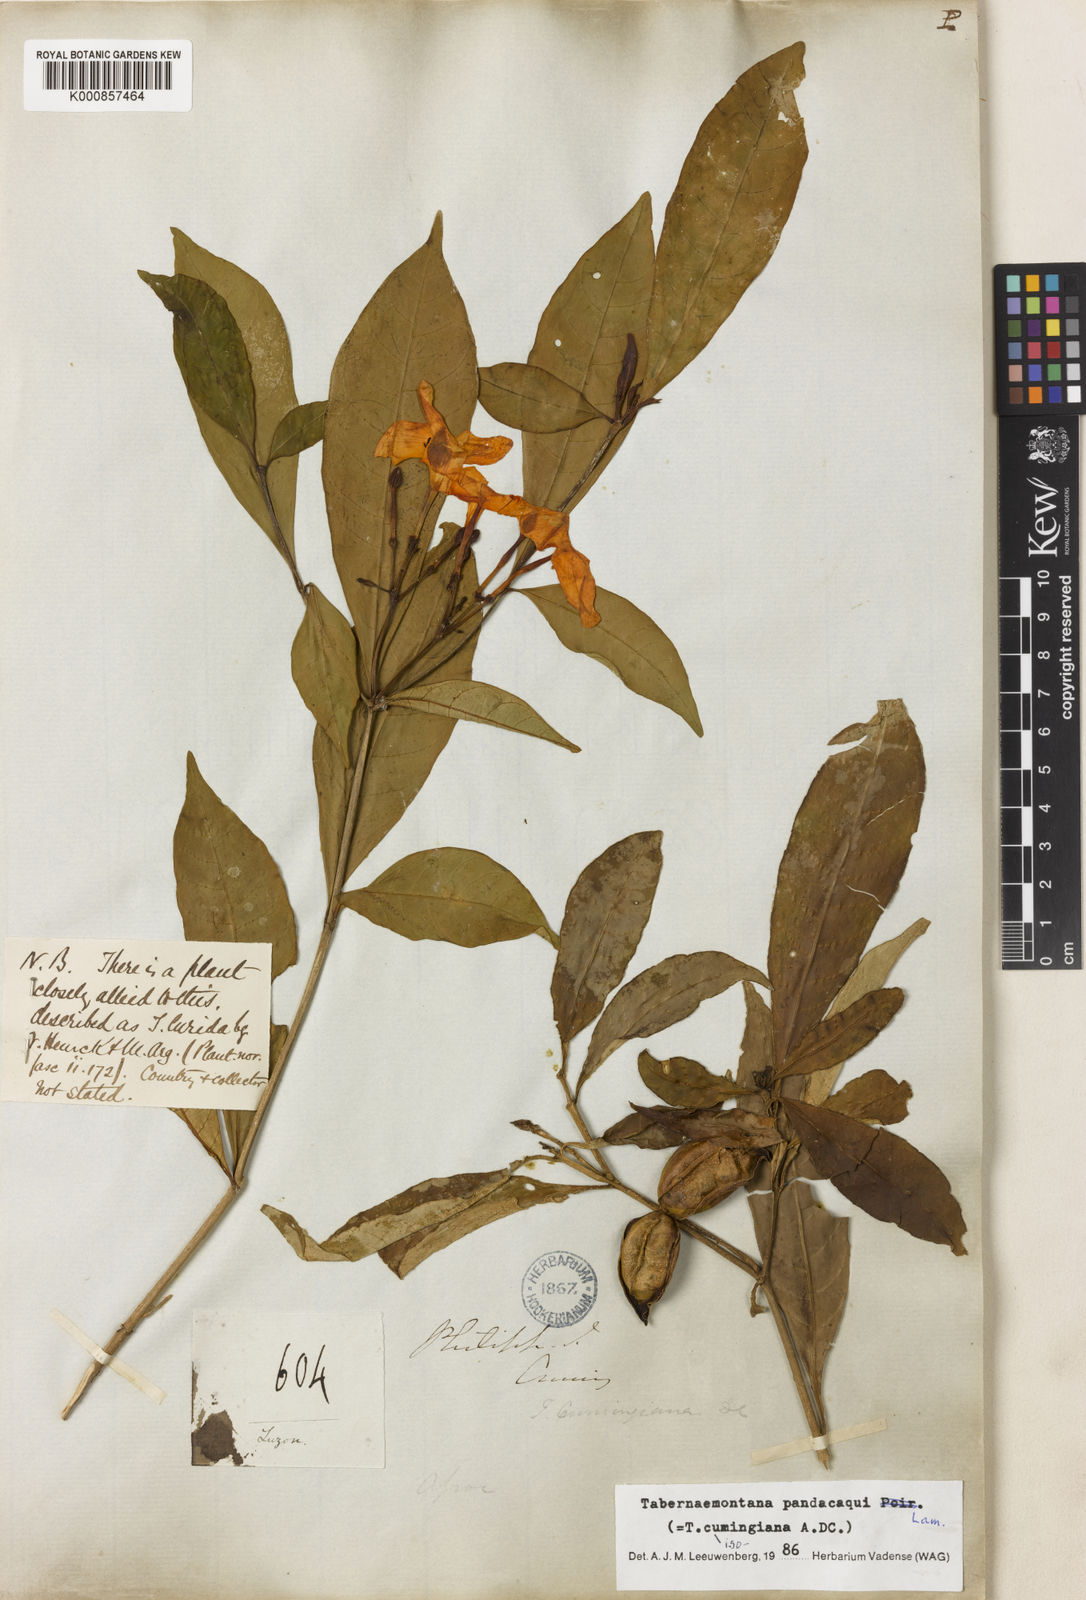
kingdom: Plantae
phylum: Tracheophyta
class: Magnoliopsida
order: Gentianales
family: Apocynaceae
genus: Tabernaemontana
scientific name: Tabernaemontana
